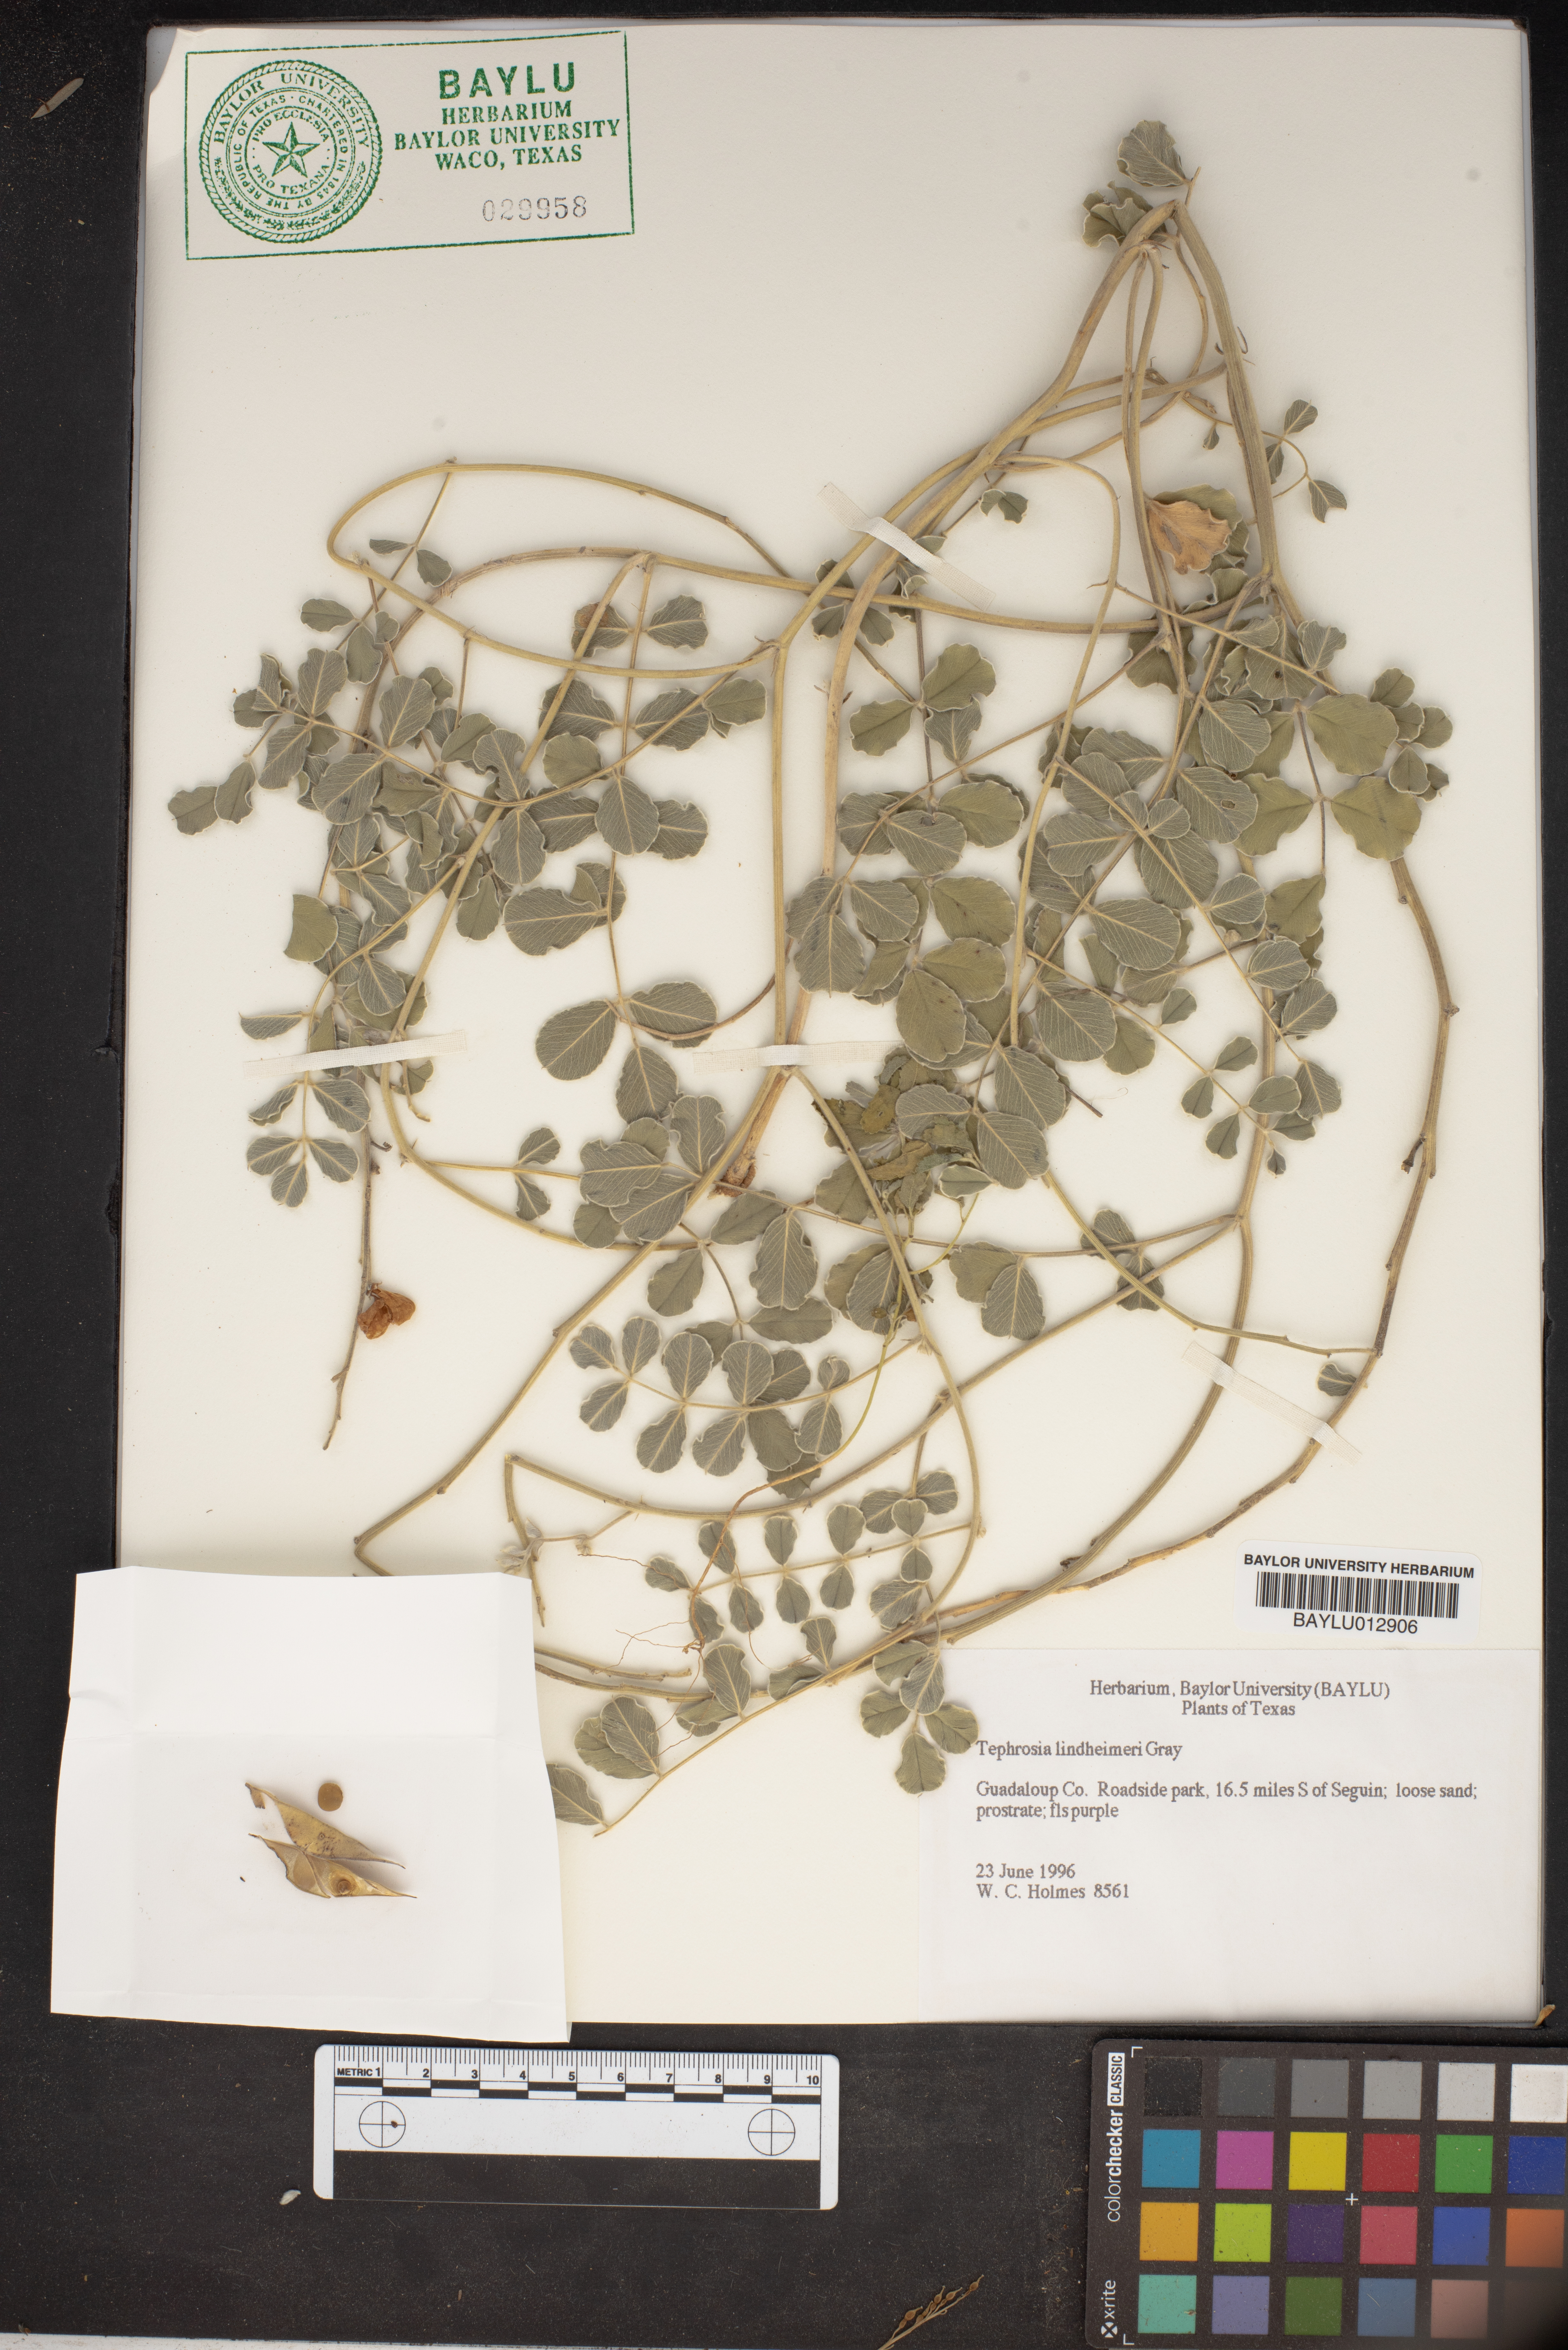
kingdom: Plantae
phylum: Tracheophyta
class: Magnoliopsida
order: Fabales
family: Fabaceae
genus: Tephrosia
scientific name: Tephrosia lindheimeri
